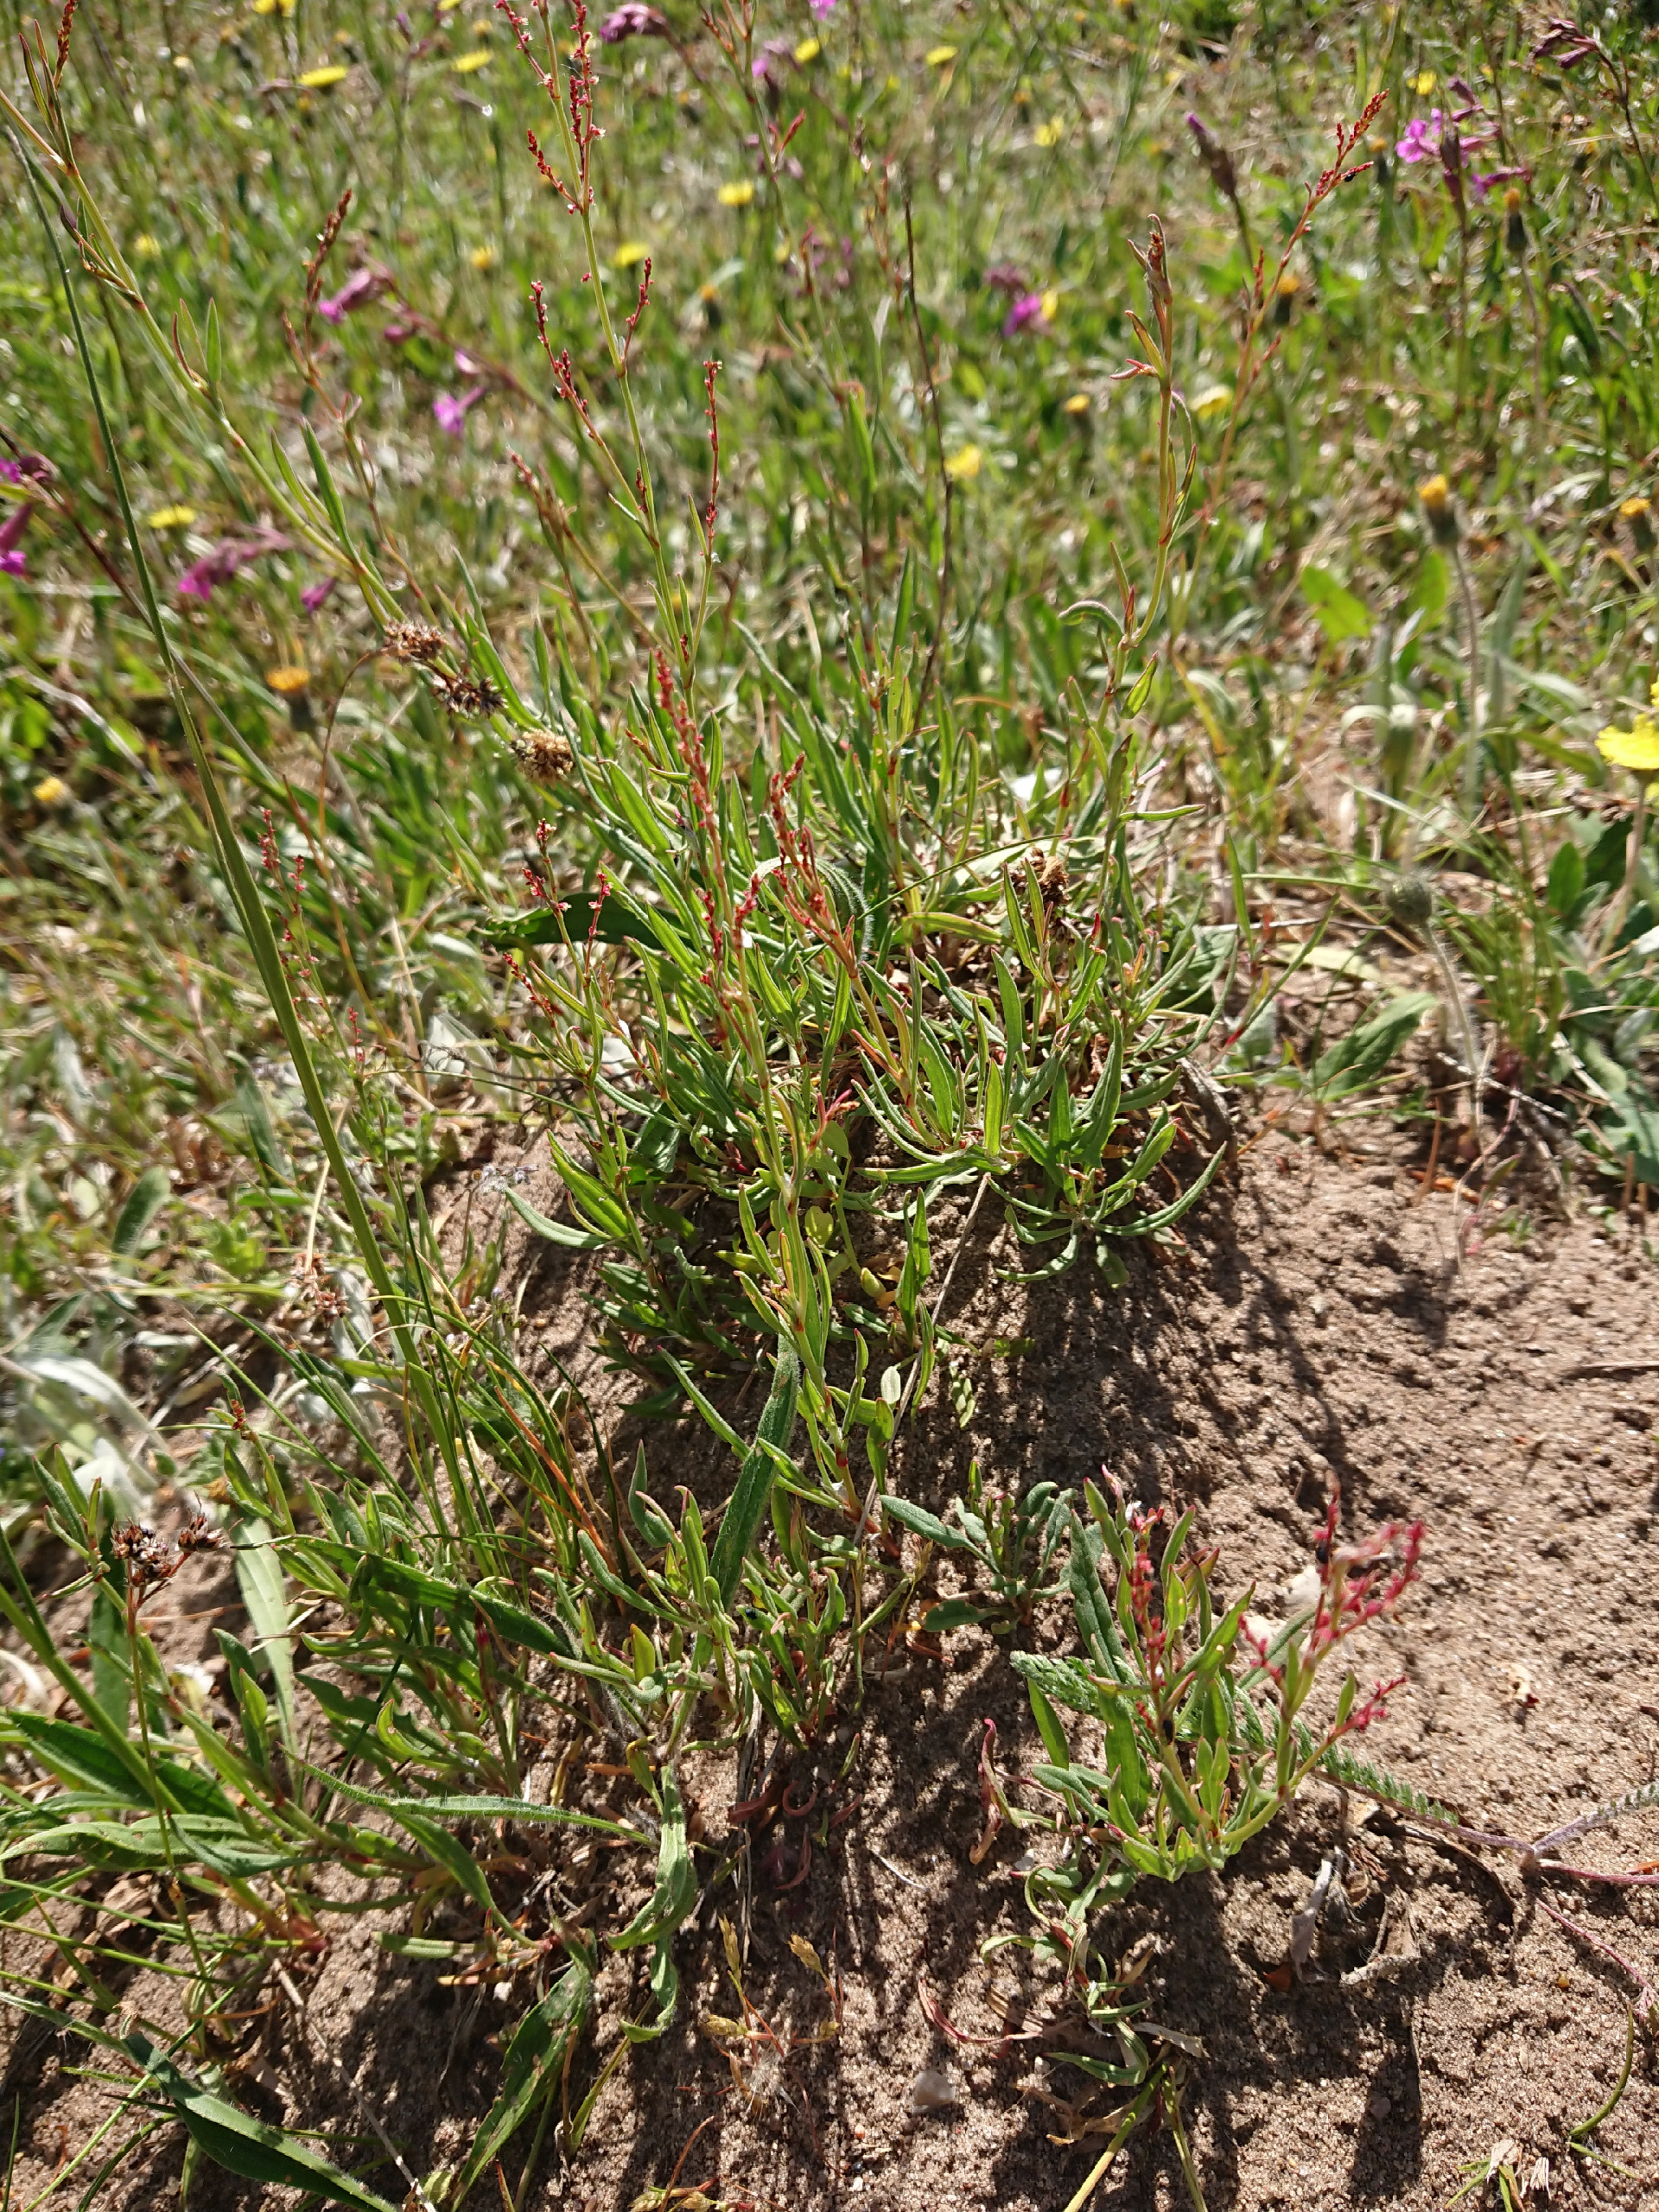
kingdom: Plantae
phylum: Tracheophyta
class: Magnoliopsida
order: Caryophyllales
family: Polygonaceae
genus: Rumex
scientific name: Rumex acetosella
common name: Rødknæ
